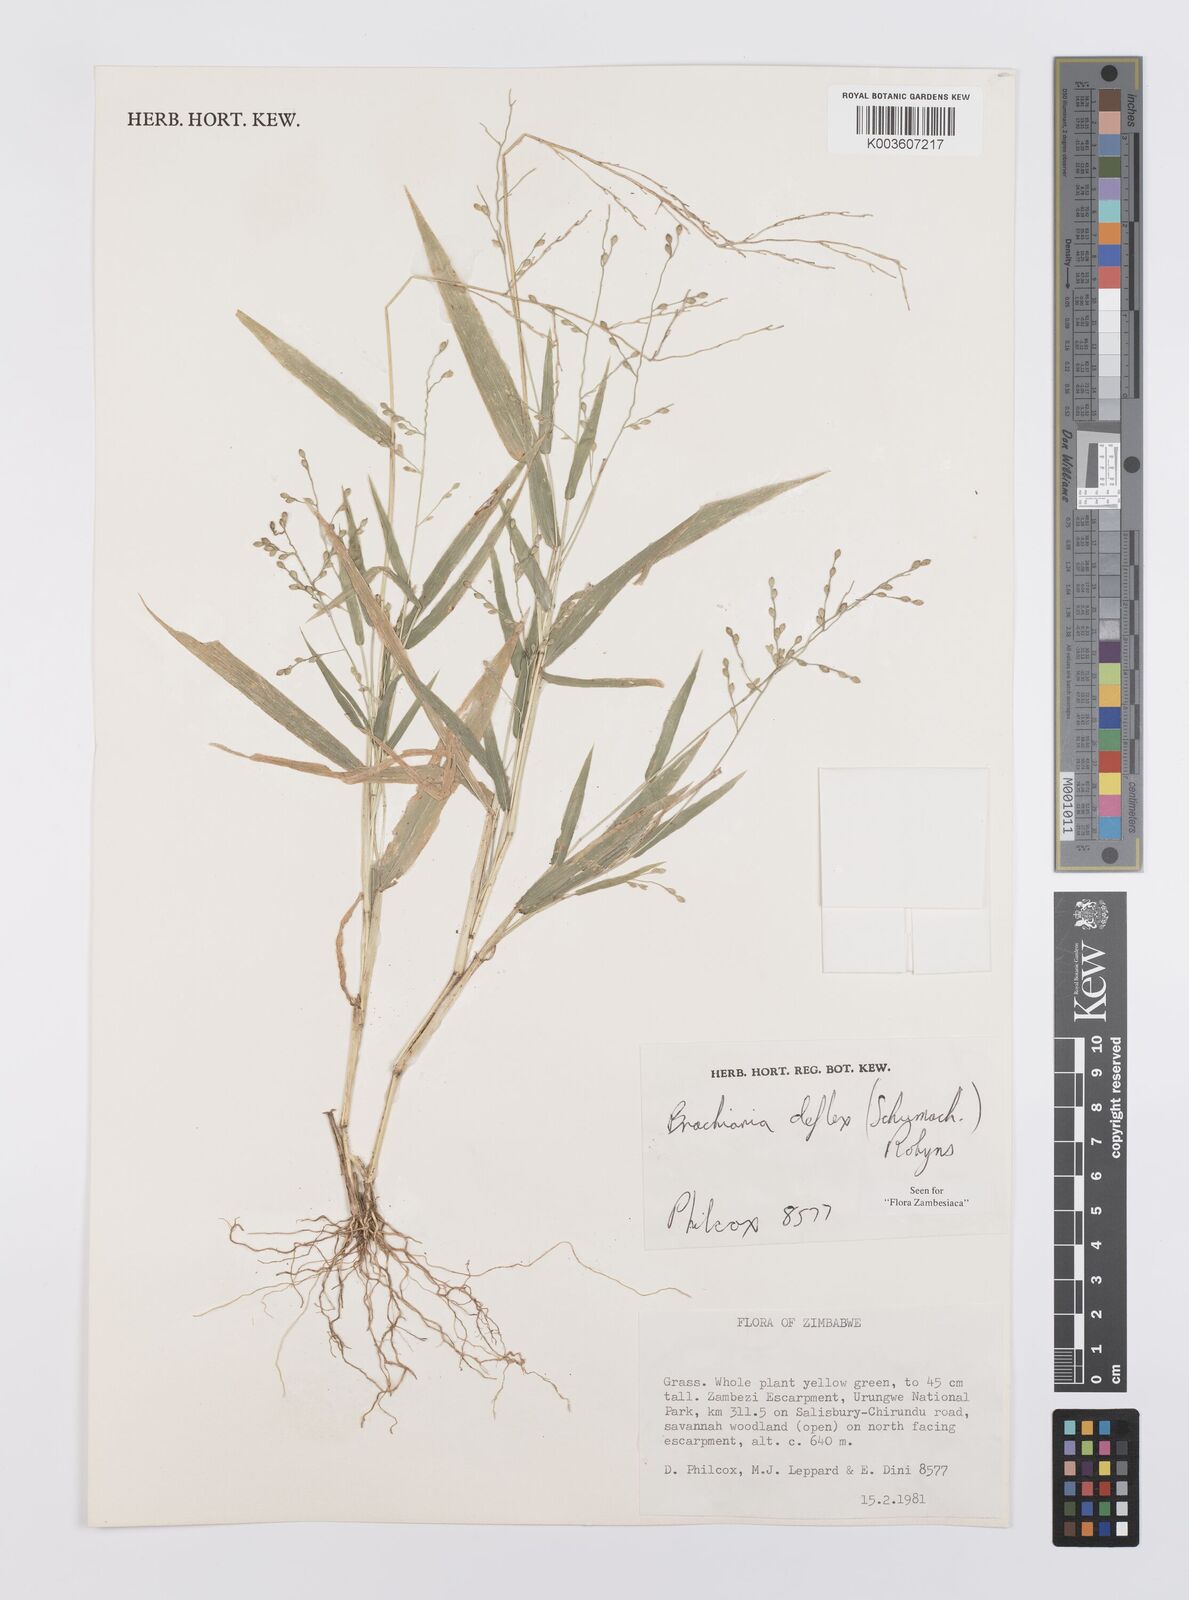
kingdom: Plantae
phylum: Tracheophyta
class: Liliopsida
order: Poales
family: Poaceae
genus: Urochloa
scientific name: Urochloa deflexa
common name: Guinea millet
